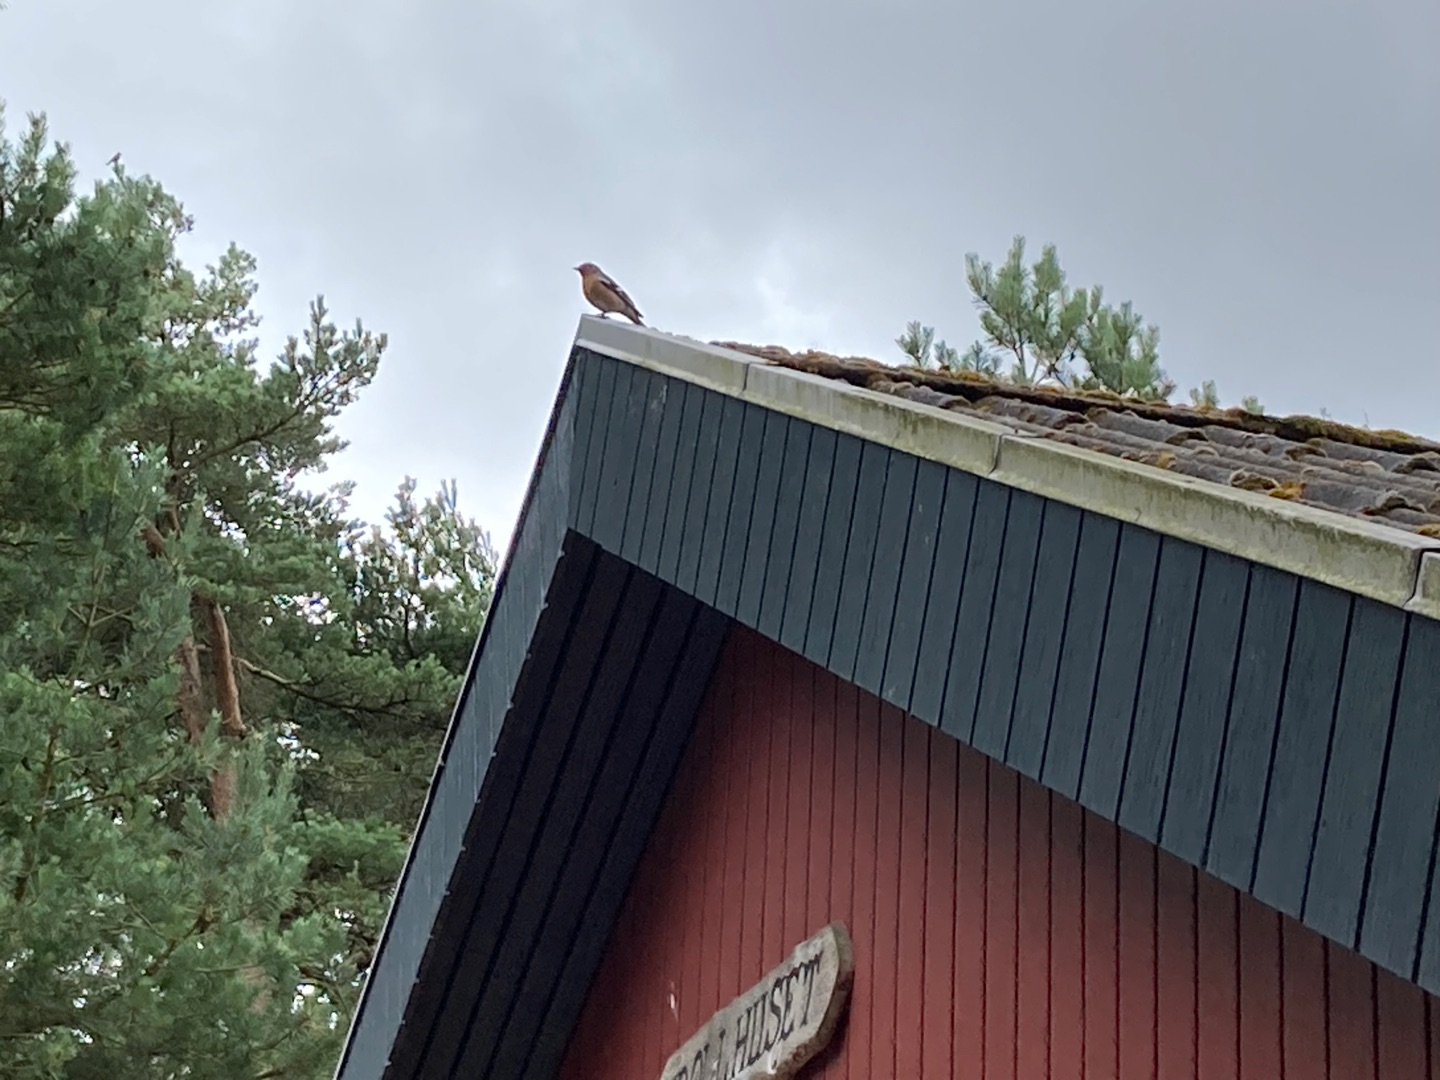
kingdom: Animalia
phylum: Chordata
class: Aves
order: Passeriformes
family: Fringillidae
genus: Fringilla
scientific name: Fringilla coelebs
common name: Bogfinke
